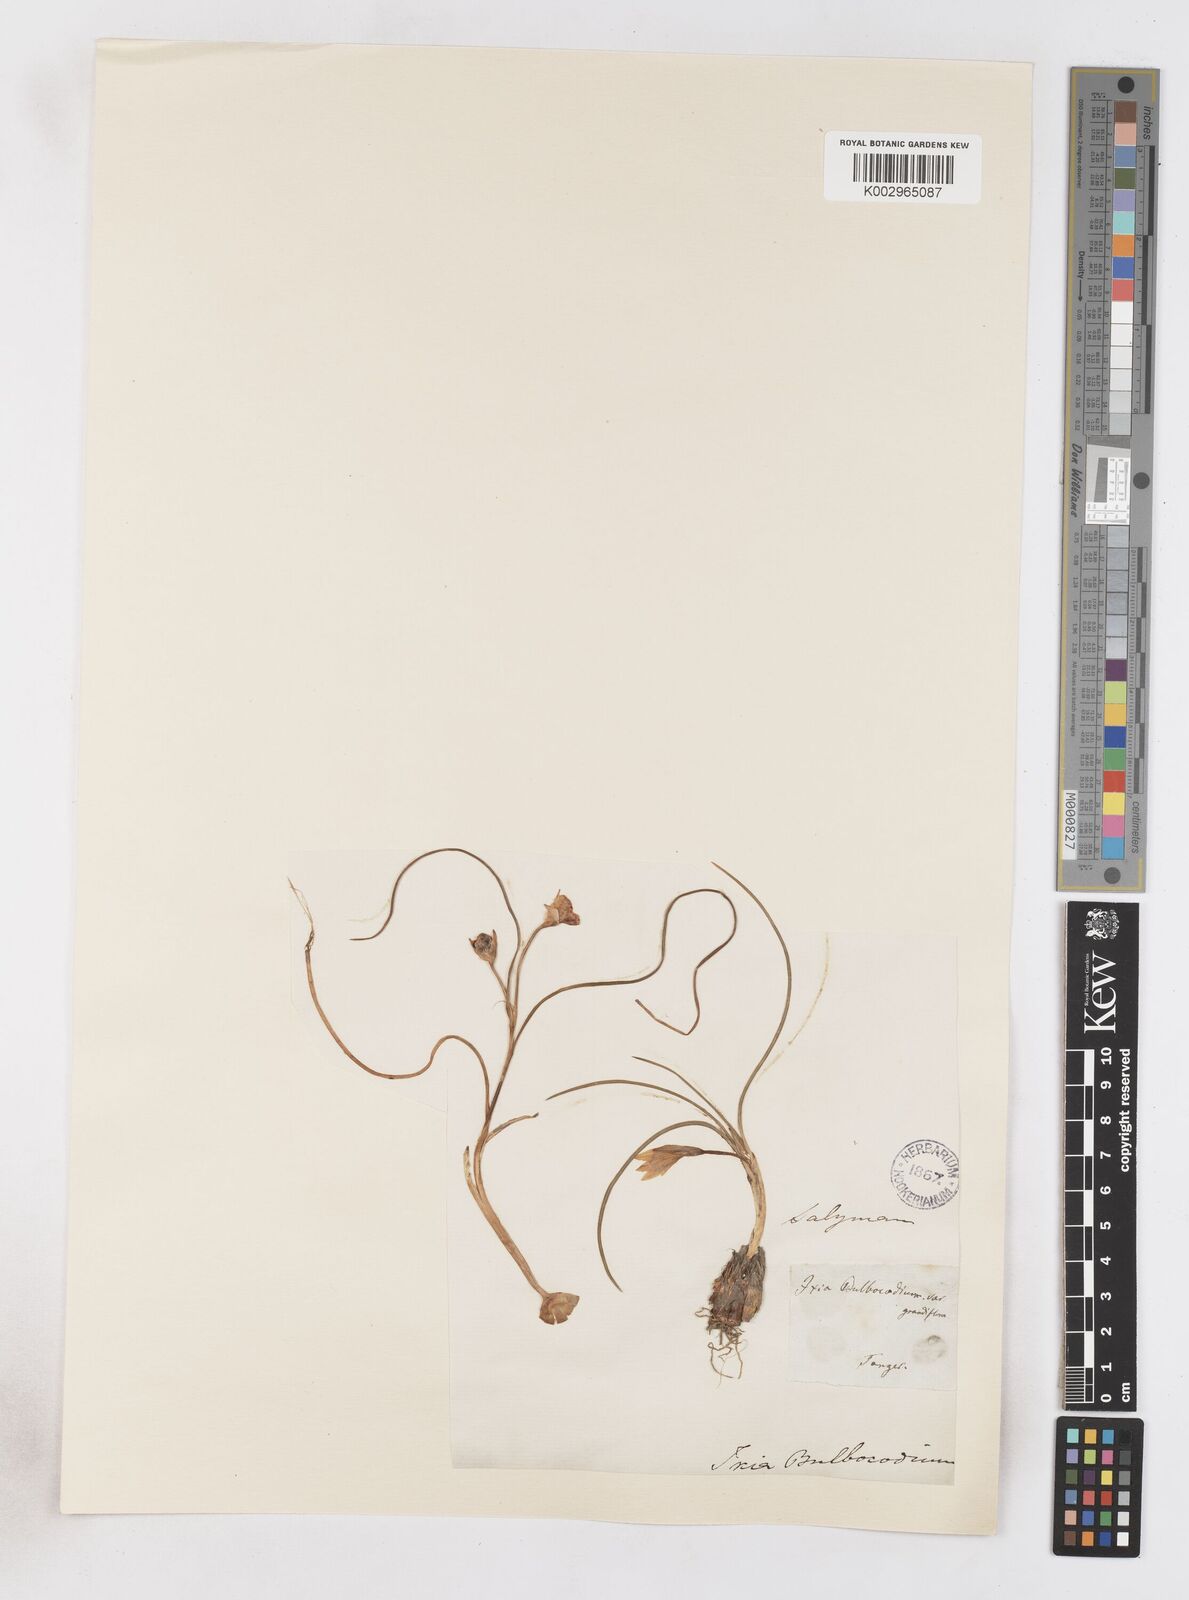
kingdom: Plantae
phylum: Tracheophyta
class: Liliopsida
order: Asparagales
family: Iridaceae
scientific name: Iridaceae
